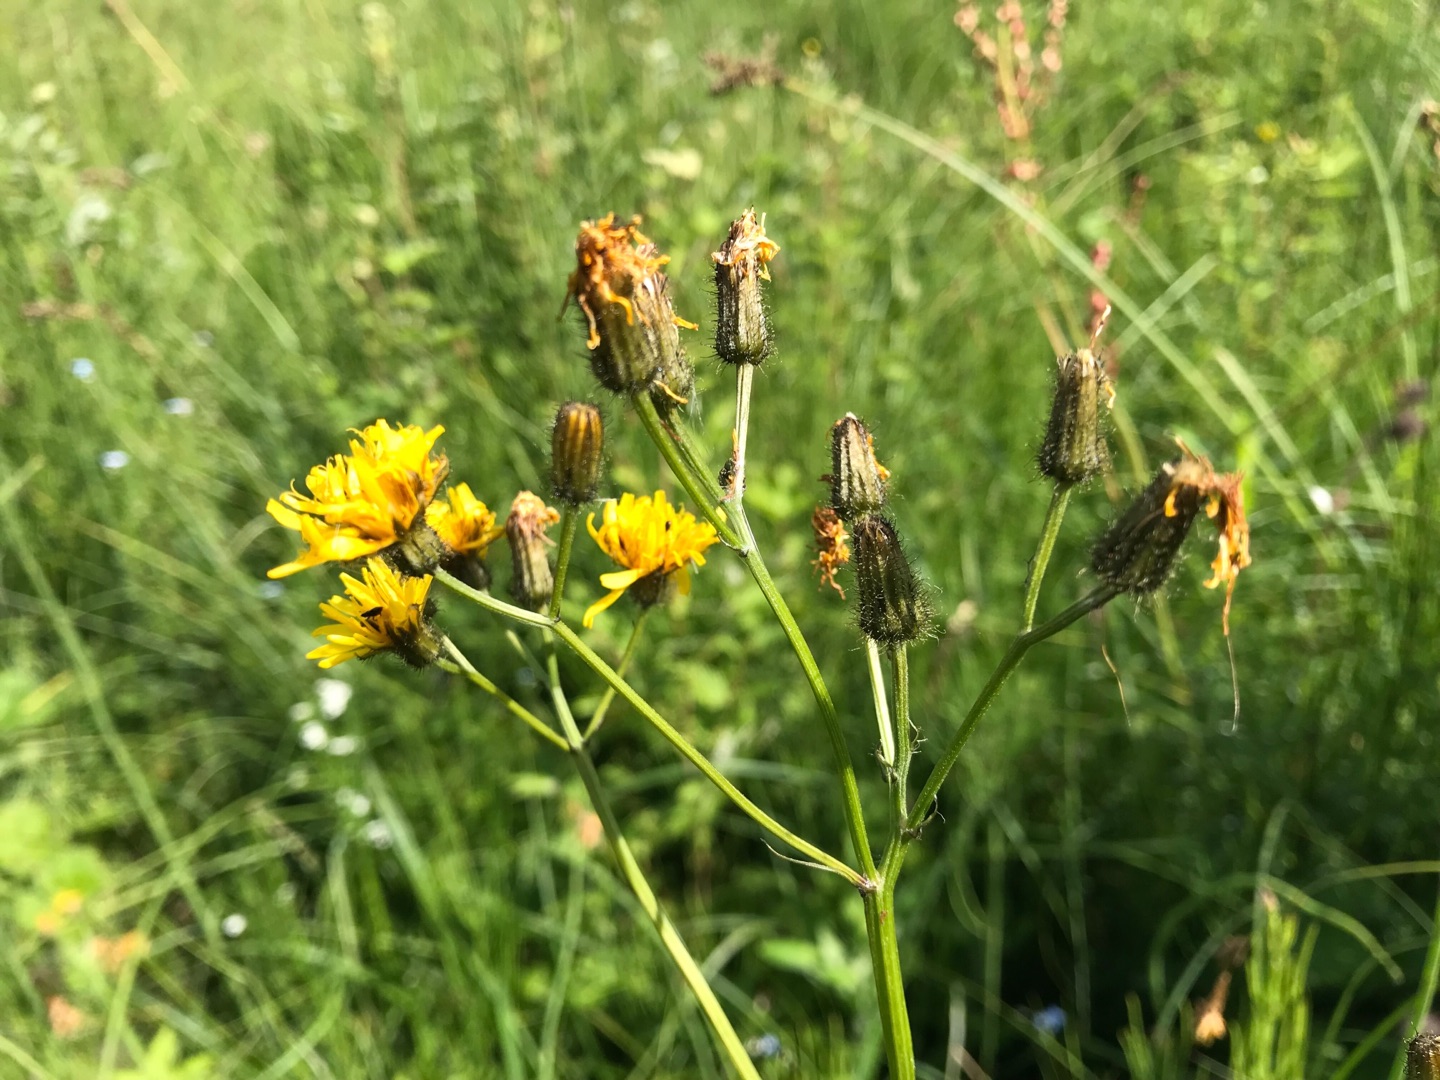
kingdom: Plantae
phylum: Tracheophyta
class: Magnoliopsida
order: Asterales
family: Asteraceae
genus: Crepis
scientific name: Crepis paludosa
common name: Kær-høgeskæg
